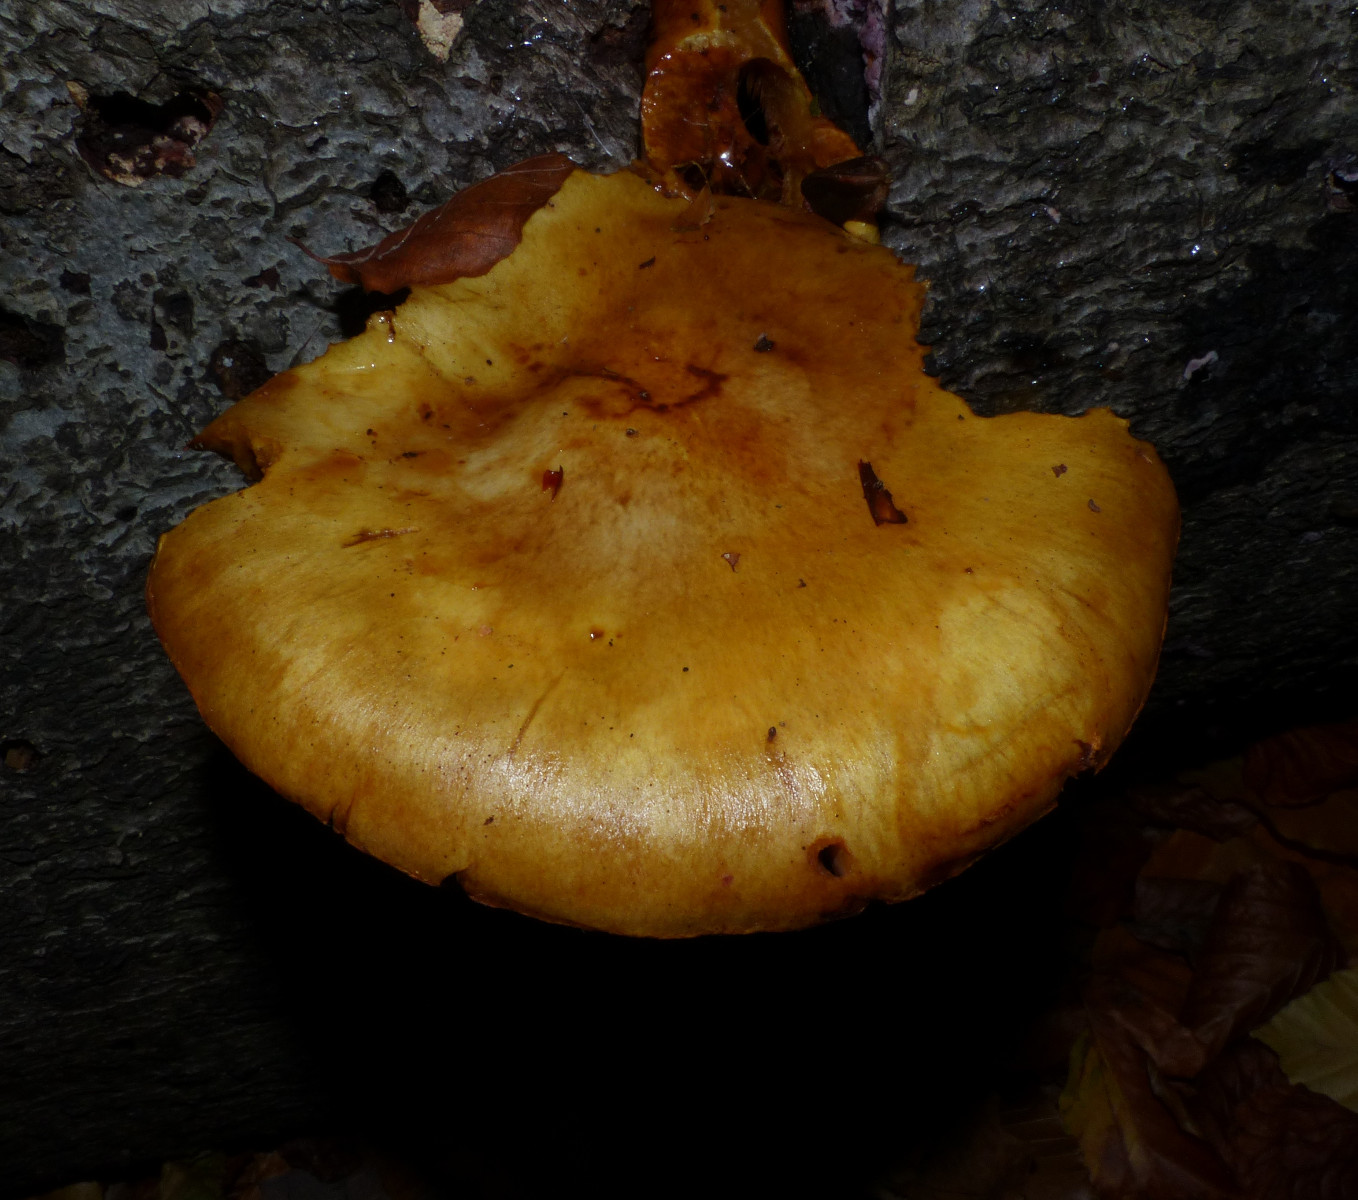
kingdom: Fungi
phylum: Basidiomycota
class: Agaricomycetes
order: Agaricales
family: Strophariaceae
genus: Pholiota
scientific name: Pholiota adiposa
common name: højtsiddende skælhat
